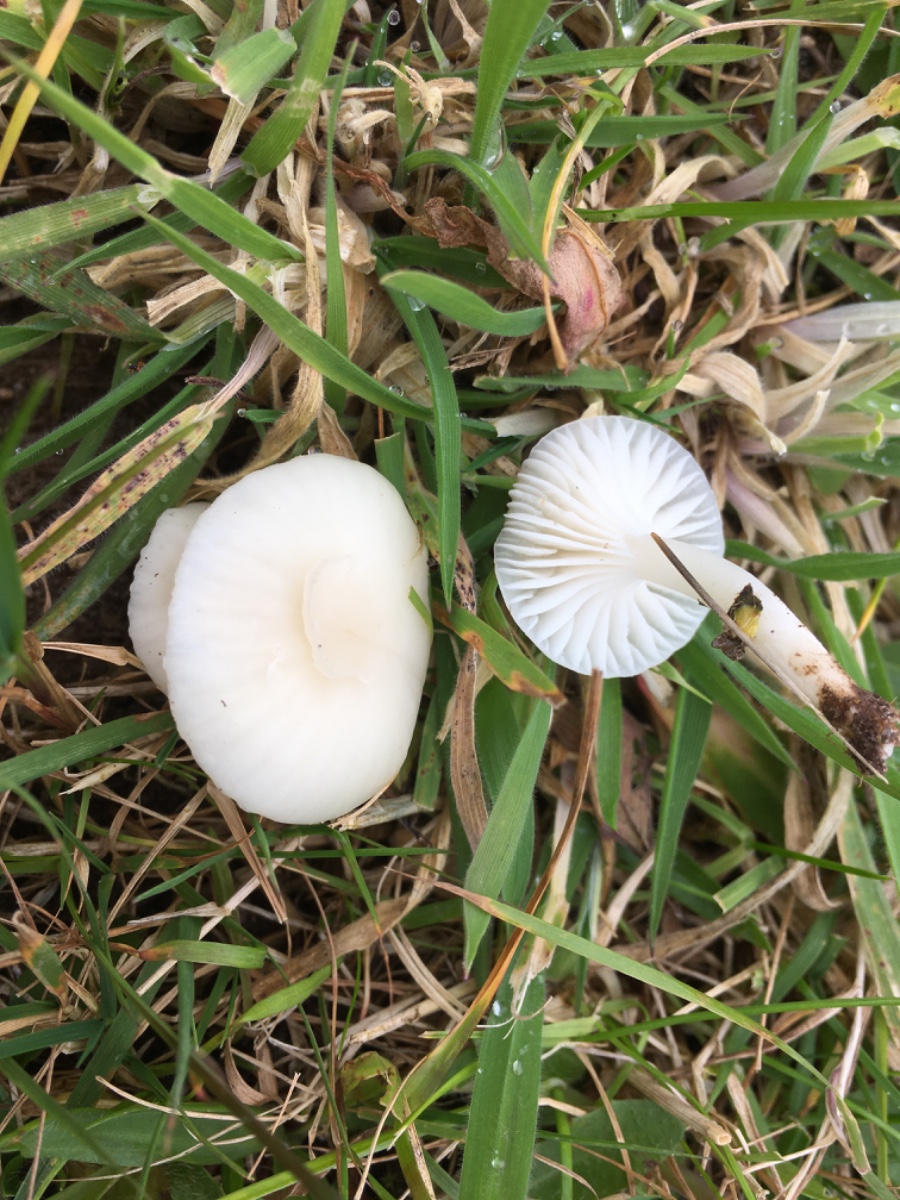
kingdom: Fungi
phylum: Basidiomycota
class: Agaricomycetes
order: Agaricales
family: Hygrophoraceae
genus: Cuphophyllus
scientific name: Cuphophyllus virgineus
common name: snehvid vokshat
